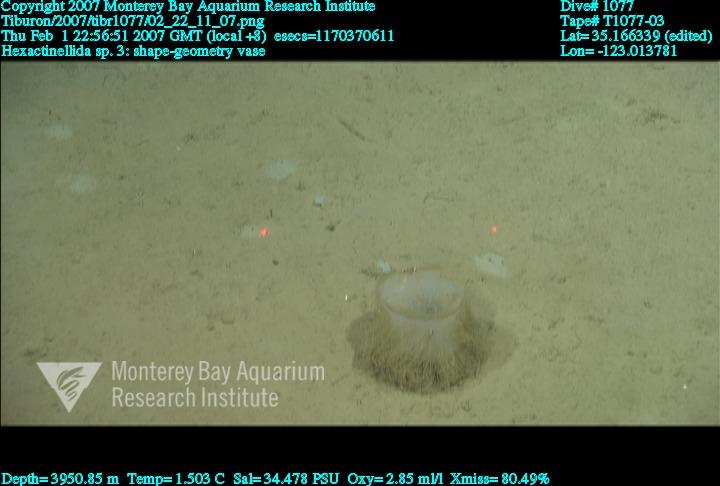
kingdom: Animalia
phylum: Porifera
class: Hexactinellida
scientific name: Hexactinellida
